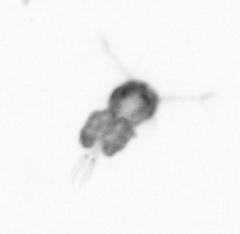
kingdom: Animalia
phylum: Arthropoda
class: Copepoda
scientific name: Copepoda
